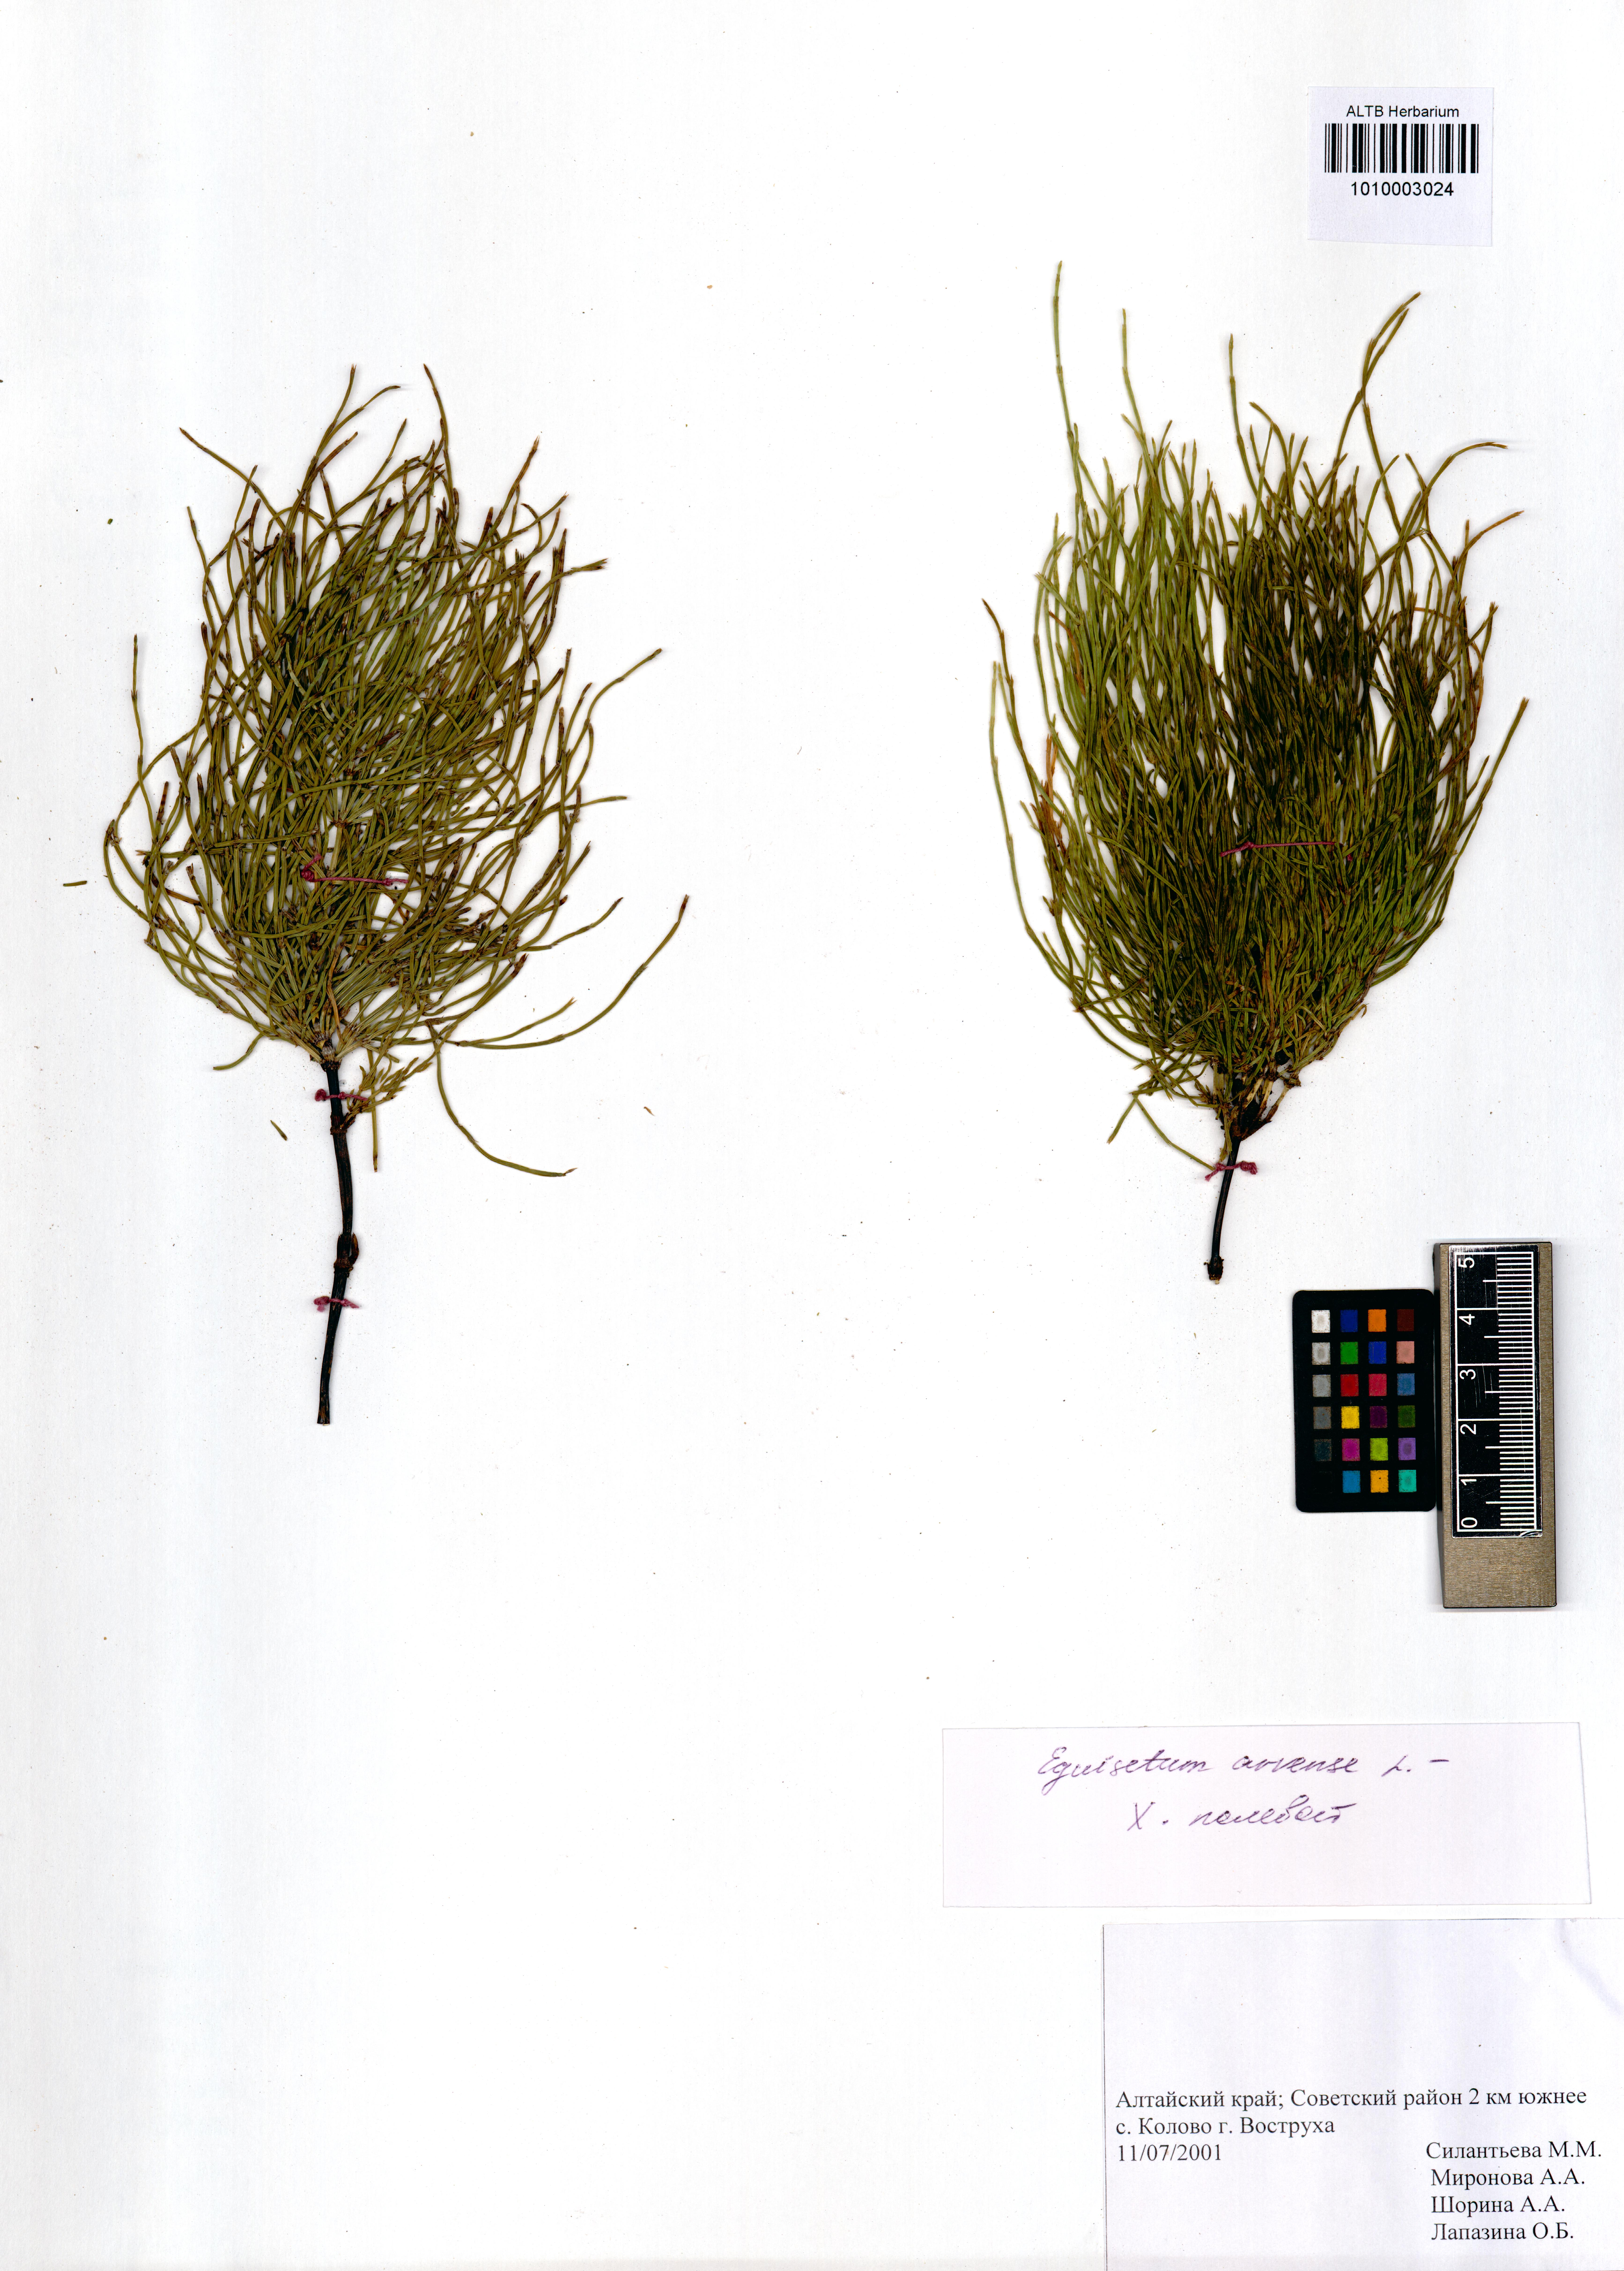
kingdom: Plantae
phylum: Tracheophyta
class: Polypodiopsida
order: Equisetales
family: Equisetaceae
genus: Equisetum
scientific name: Equisetum arvense
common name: Field horsetail
